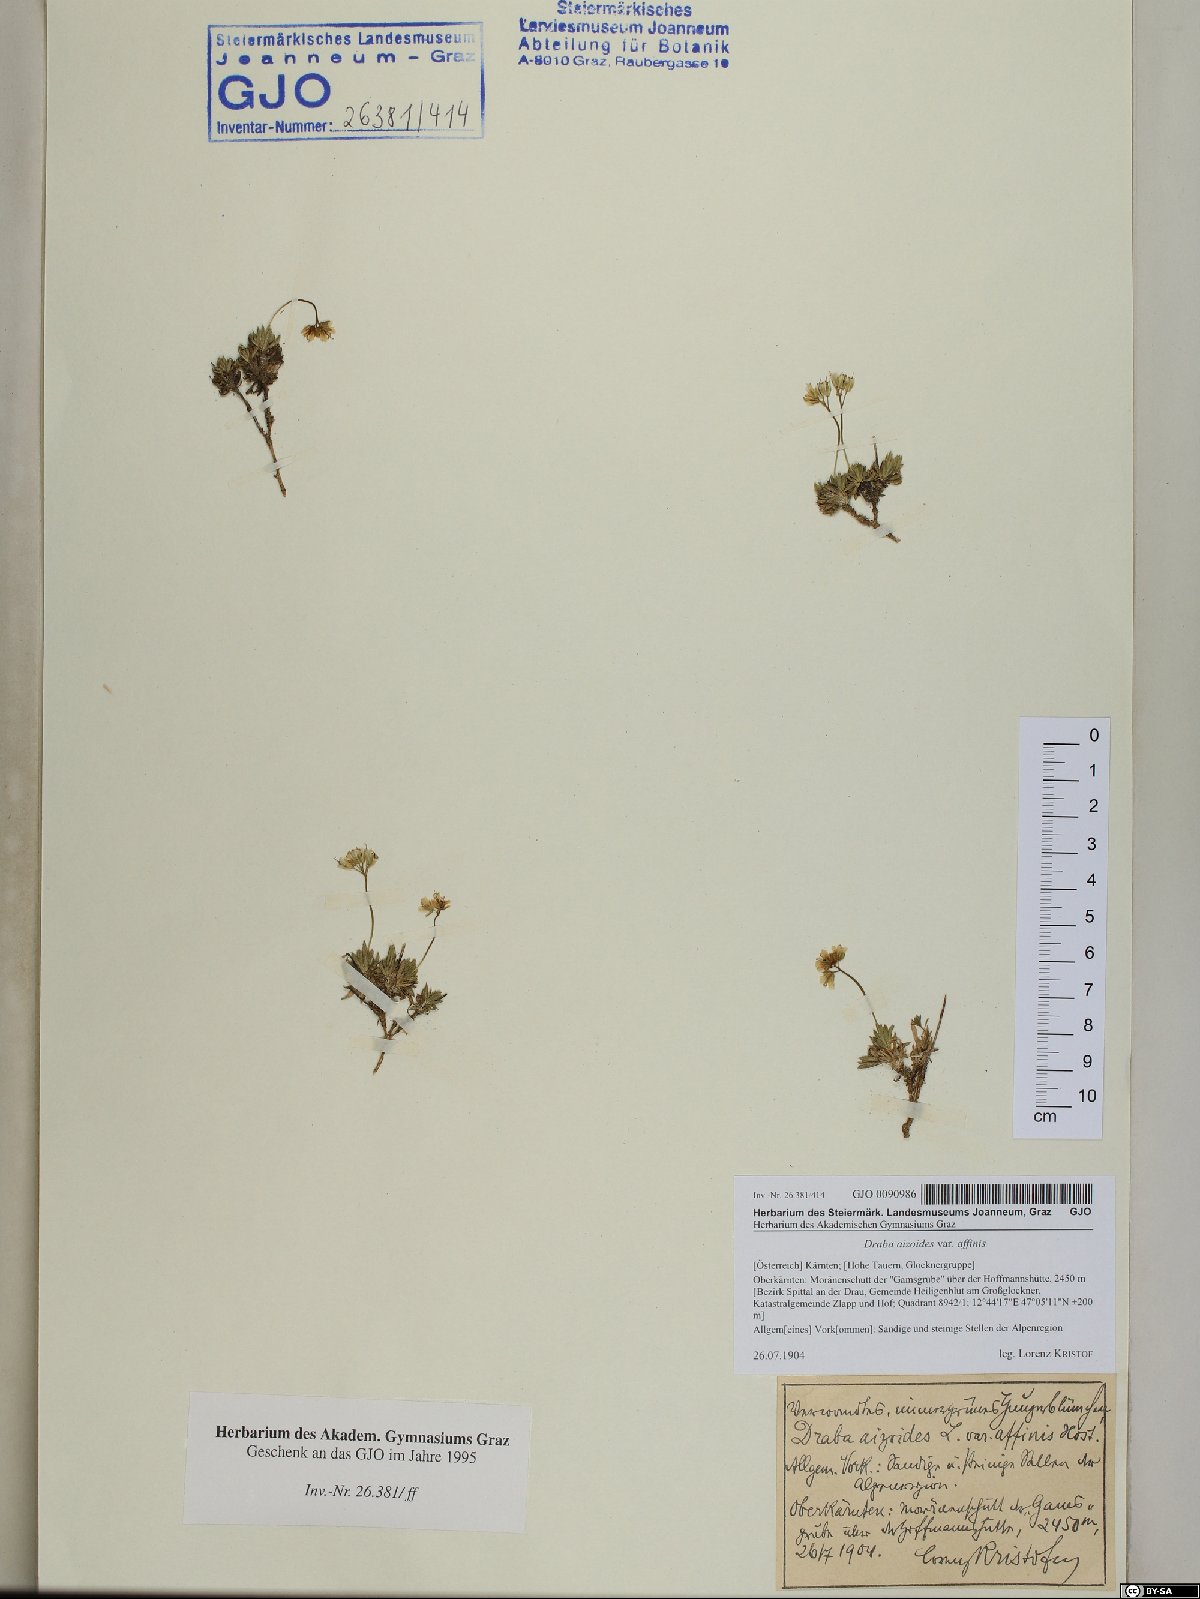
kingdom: Plantae
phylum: Tracheophyta
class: Magnoliopsida
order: Brassicales
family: Brassicaceae
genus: Draba
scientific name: Draba aizoides
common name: Yellow whitlowgrass
